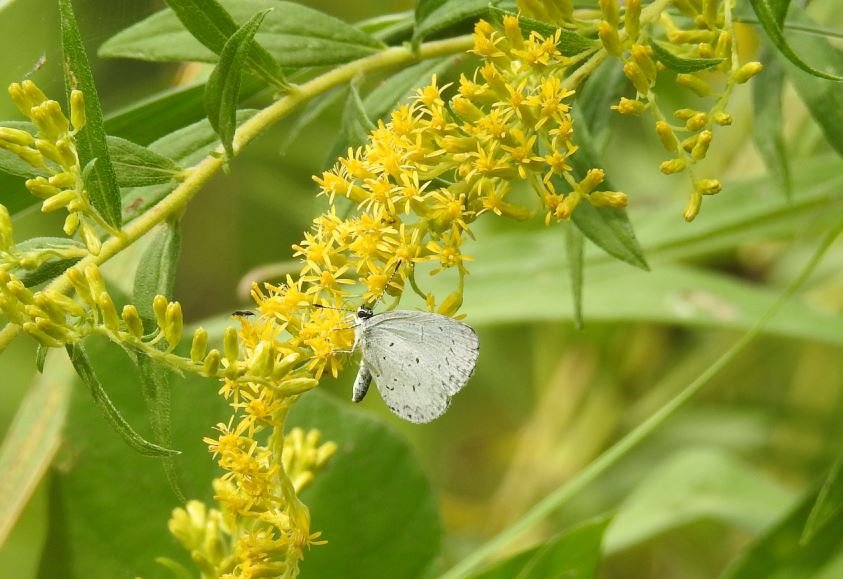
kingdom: Animalia
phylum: Arthropoda
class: Insecta
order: Lepidoptera
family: Lycaenidae
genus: Celastrina
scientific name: Celastrina
